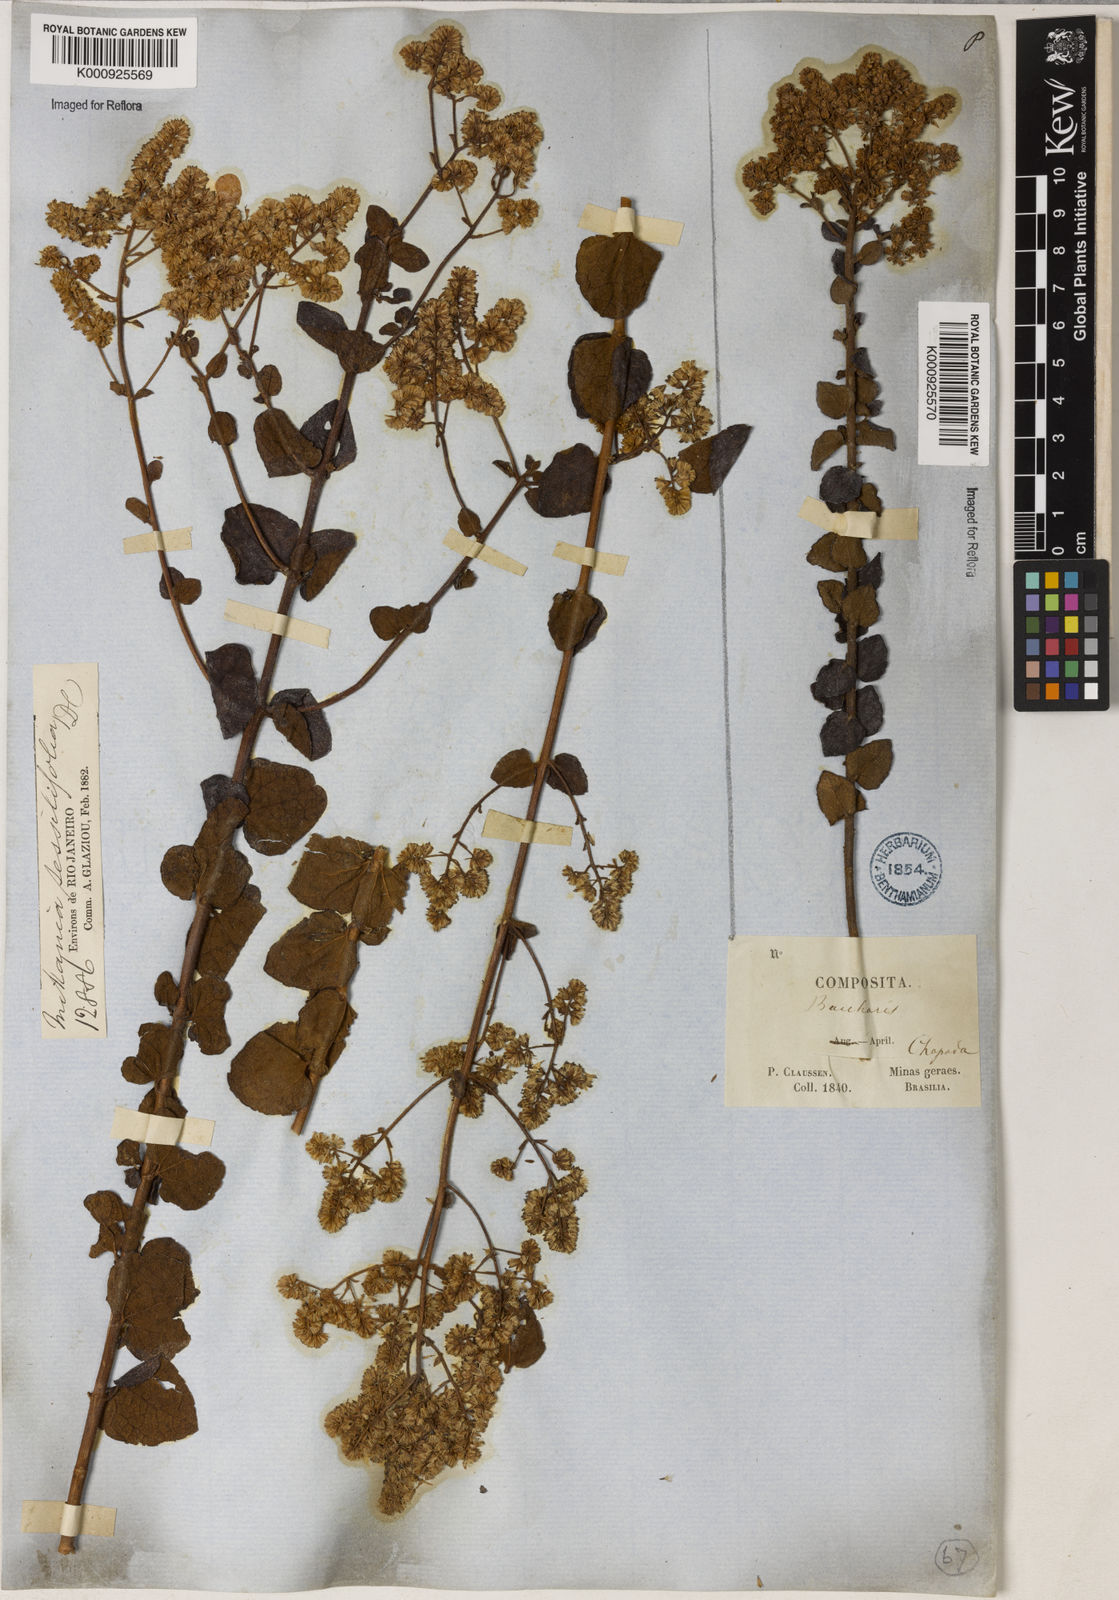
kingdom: Plantae
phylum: Tracheophyta
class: Magnoliopsida
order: Asterales
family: Asteraceae
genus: Mikania
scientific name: Mikania sessilifolia
